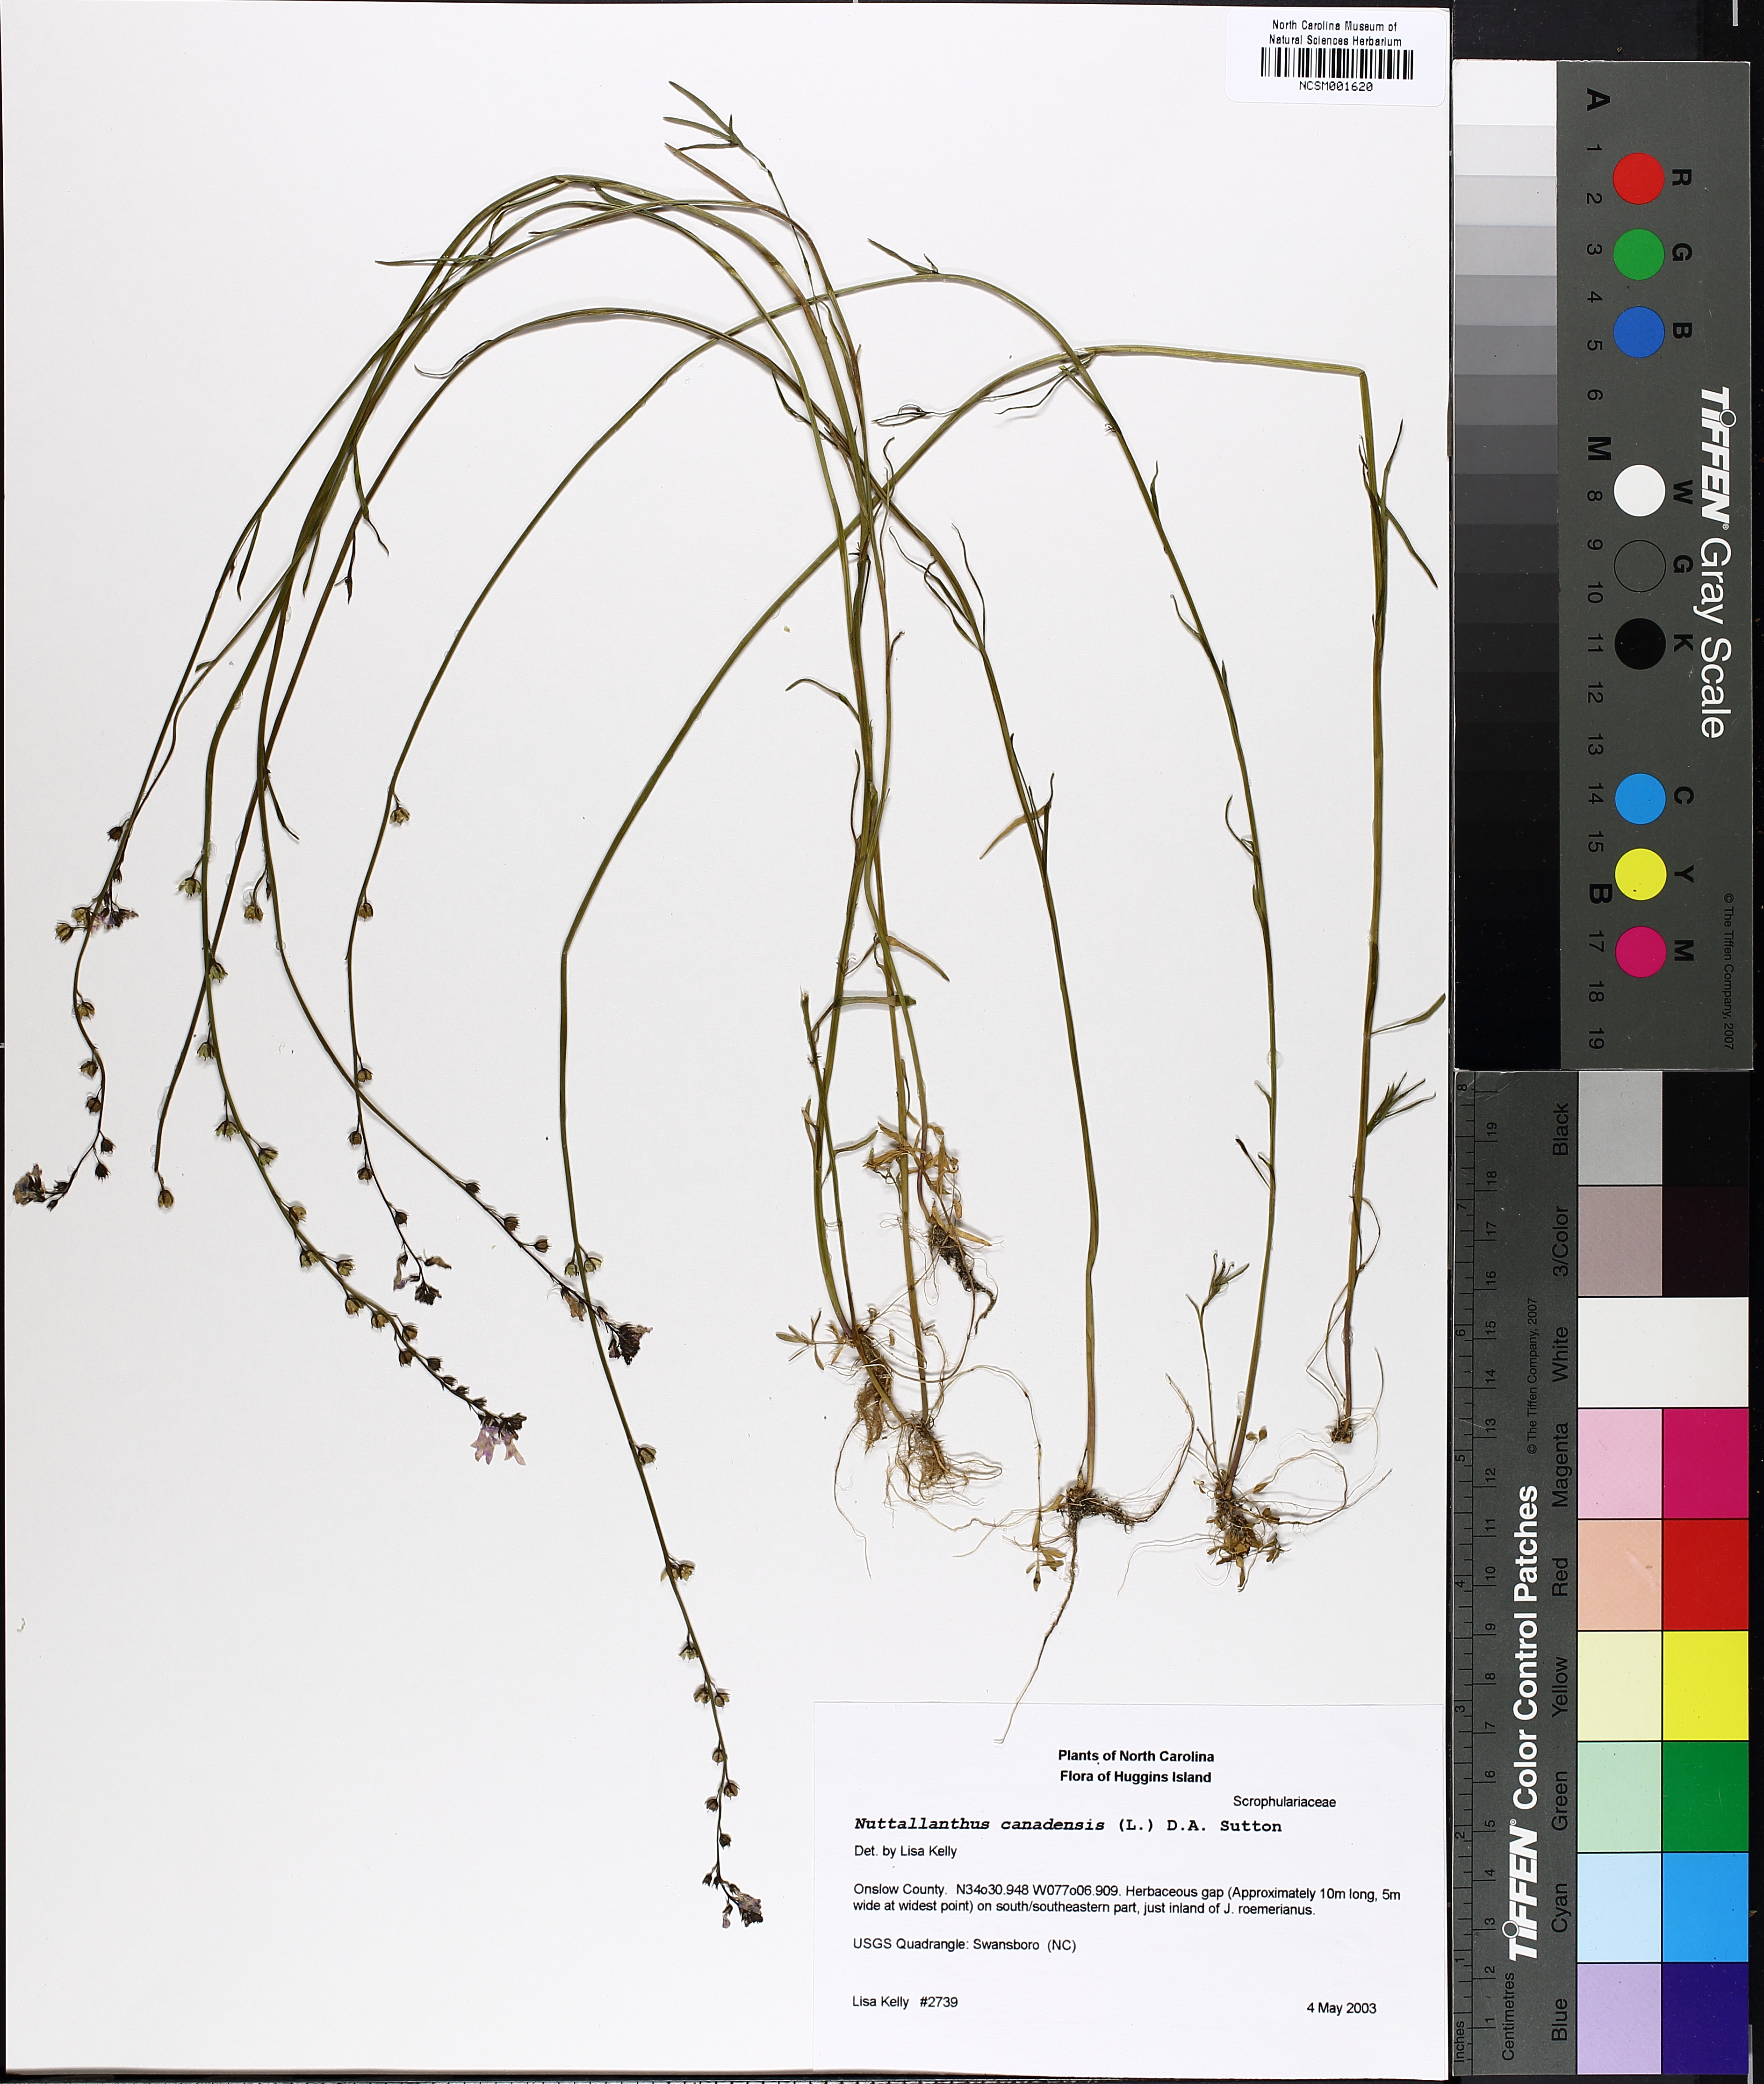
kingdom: Plantae
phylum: Tracheophyta
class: Magnoliopsida
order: Lamiales
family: Plantaginaceae
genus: Nuttallanthus
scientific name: Nuttallanthus canadensis
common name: Blue toadflax
